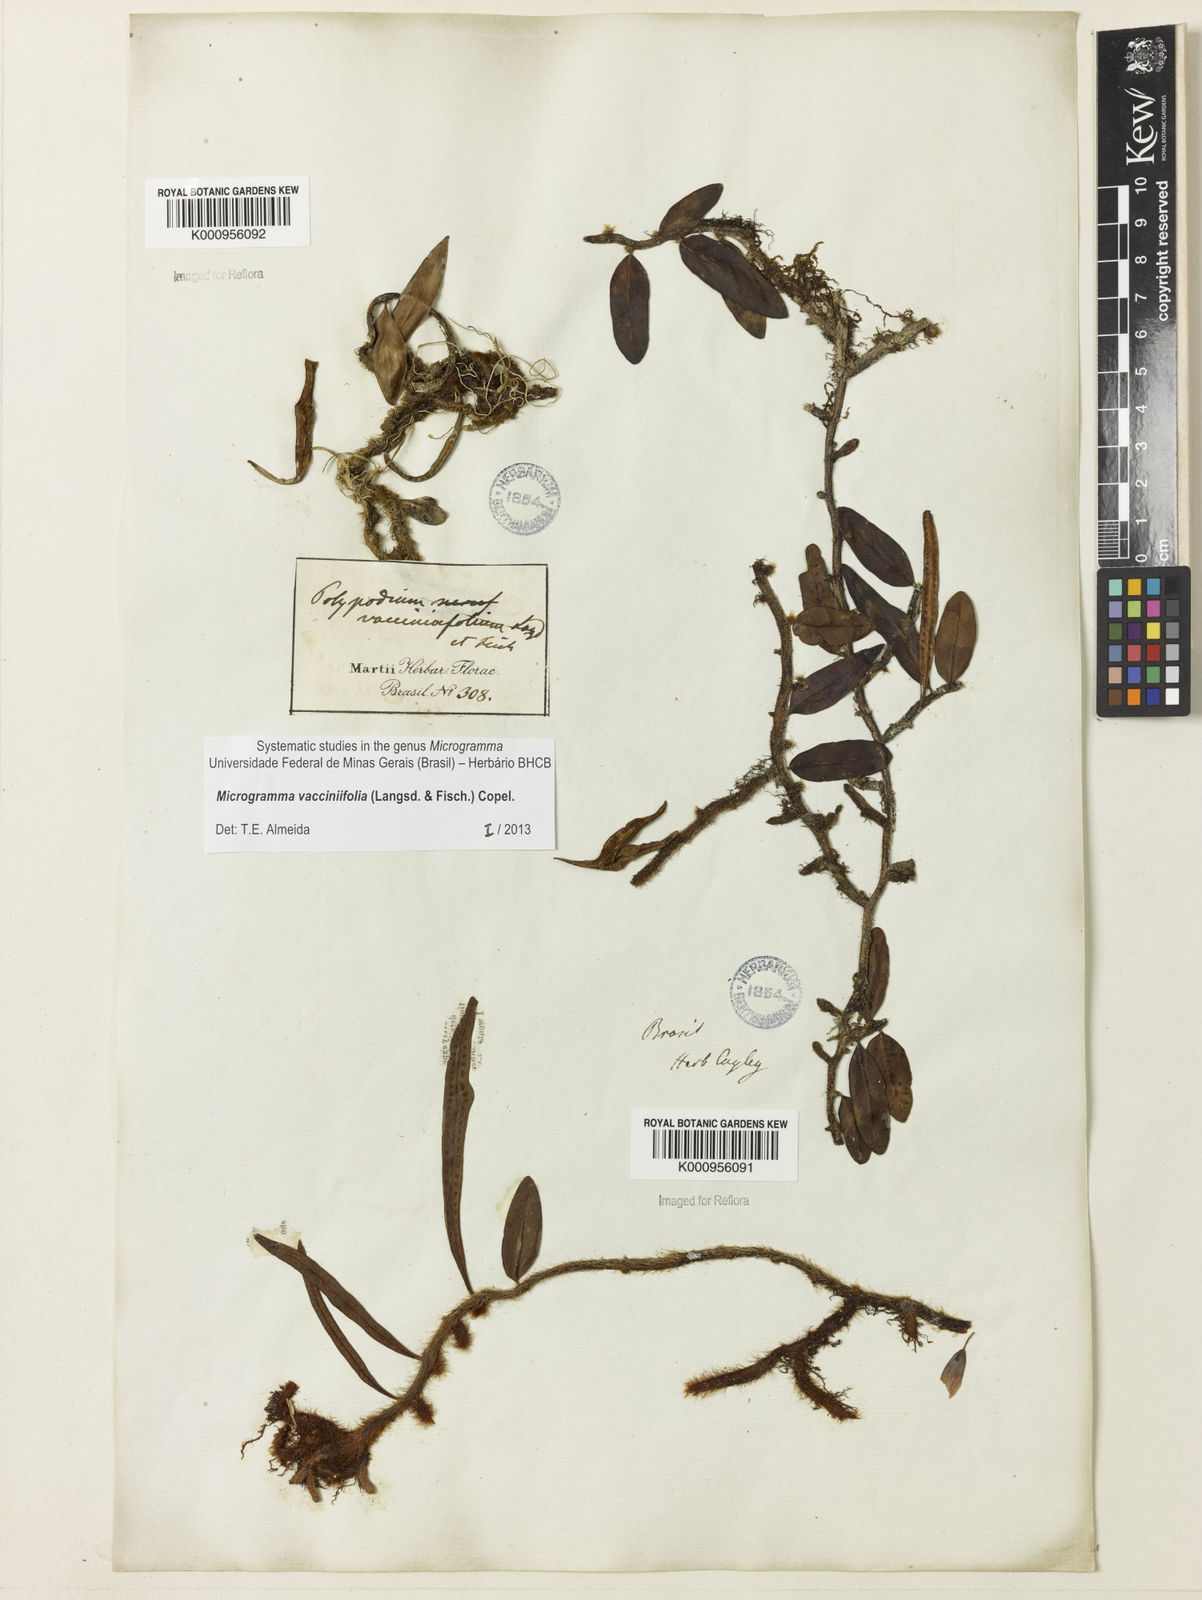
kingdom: Plantae
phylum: Tracheophyta
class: Polypodiopsida
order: Polypodiales
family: Polypodiaceae
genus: Phlebodium
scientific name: Phlebodium
